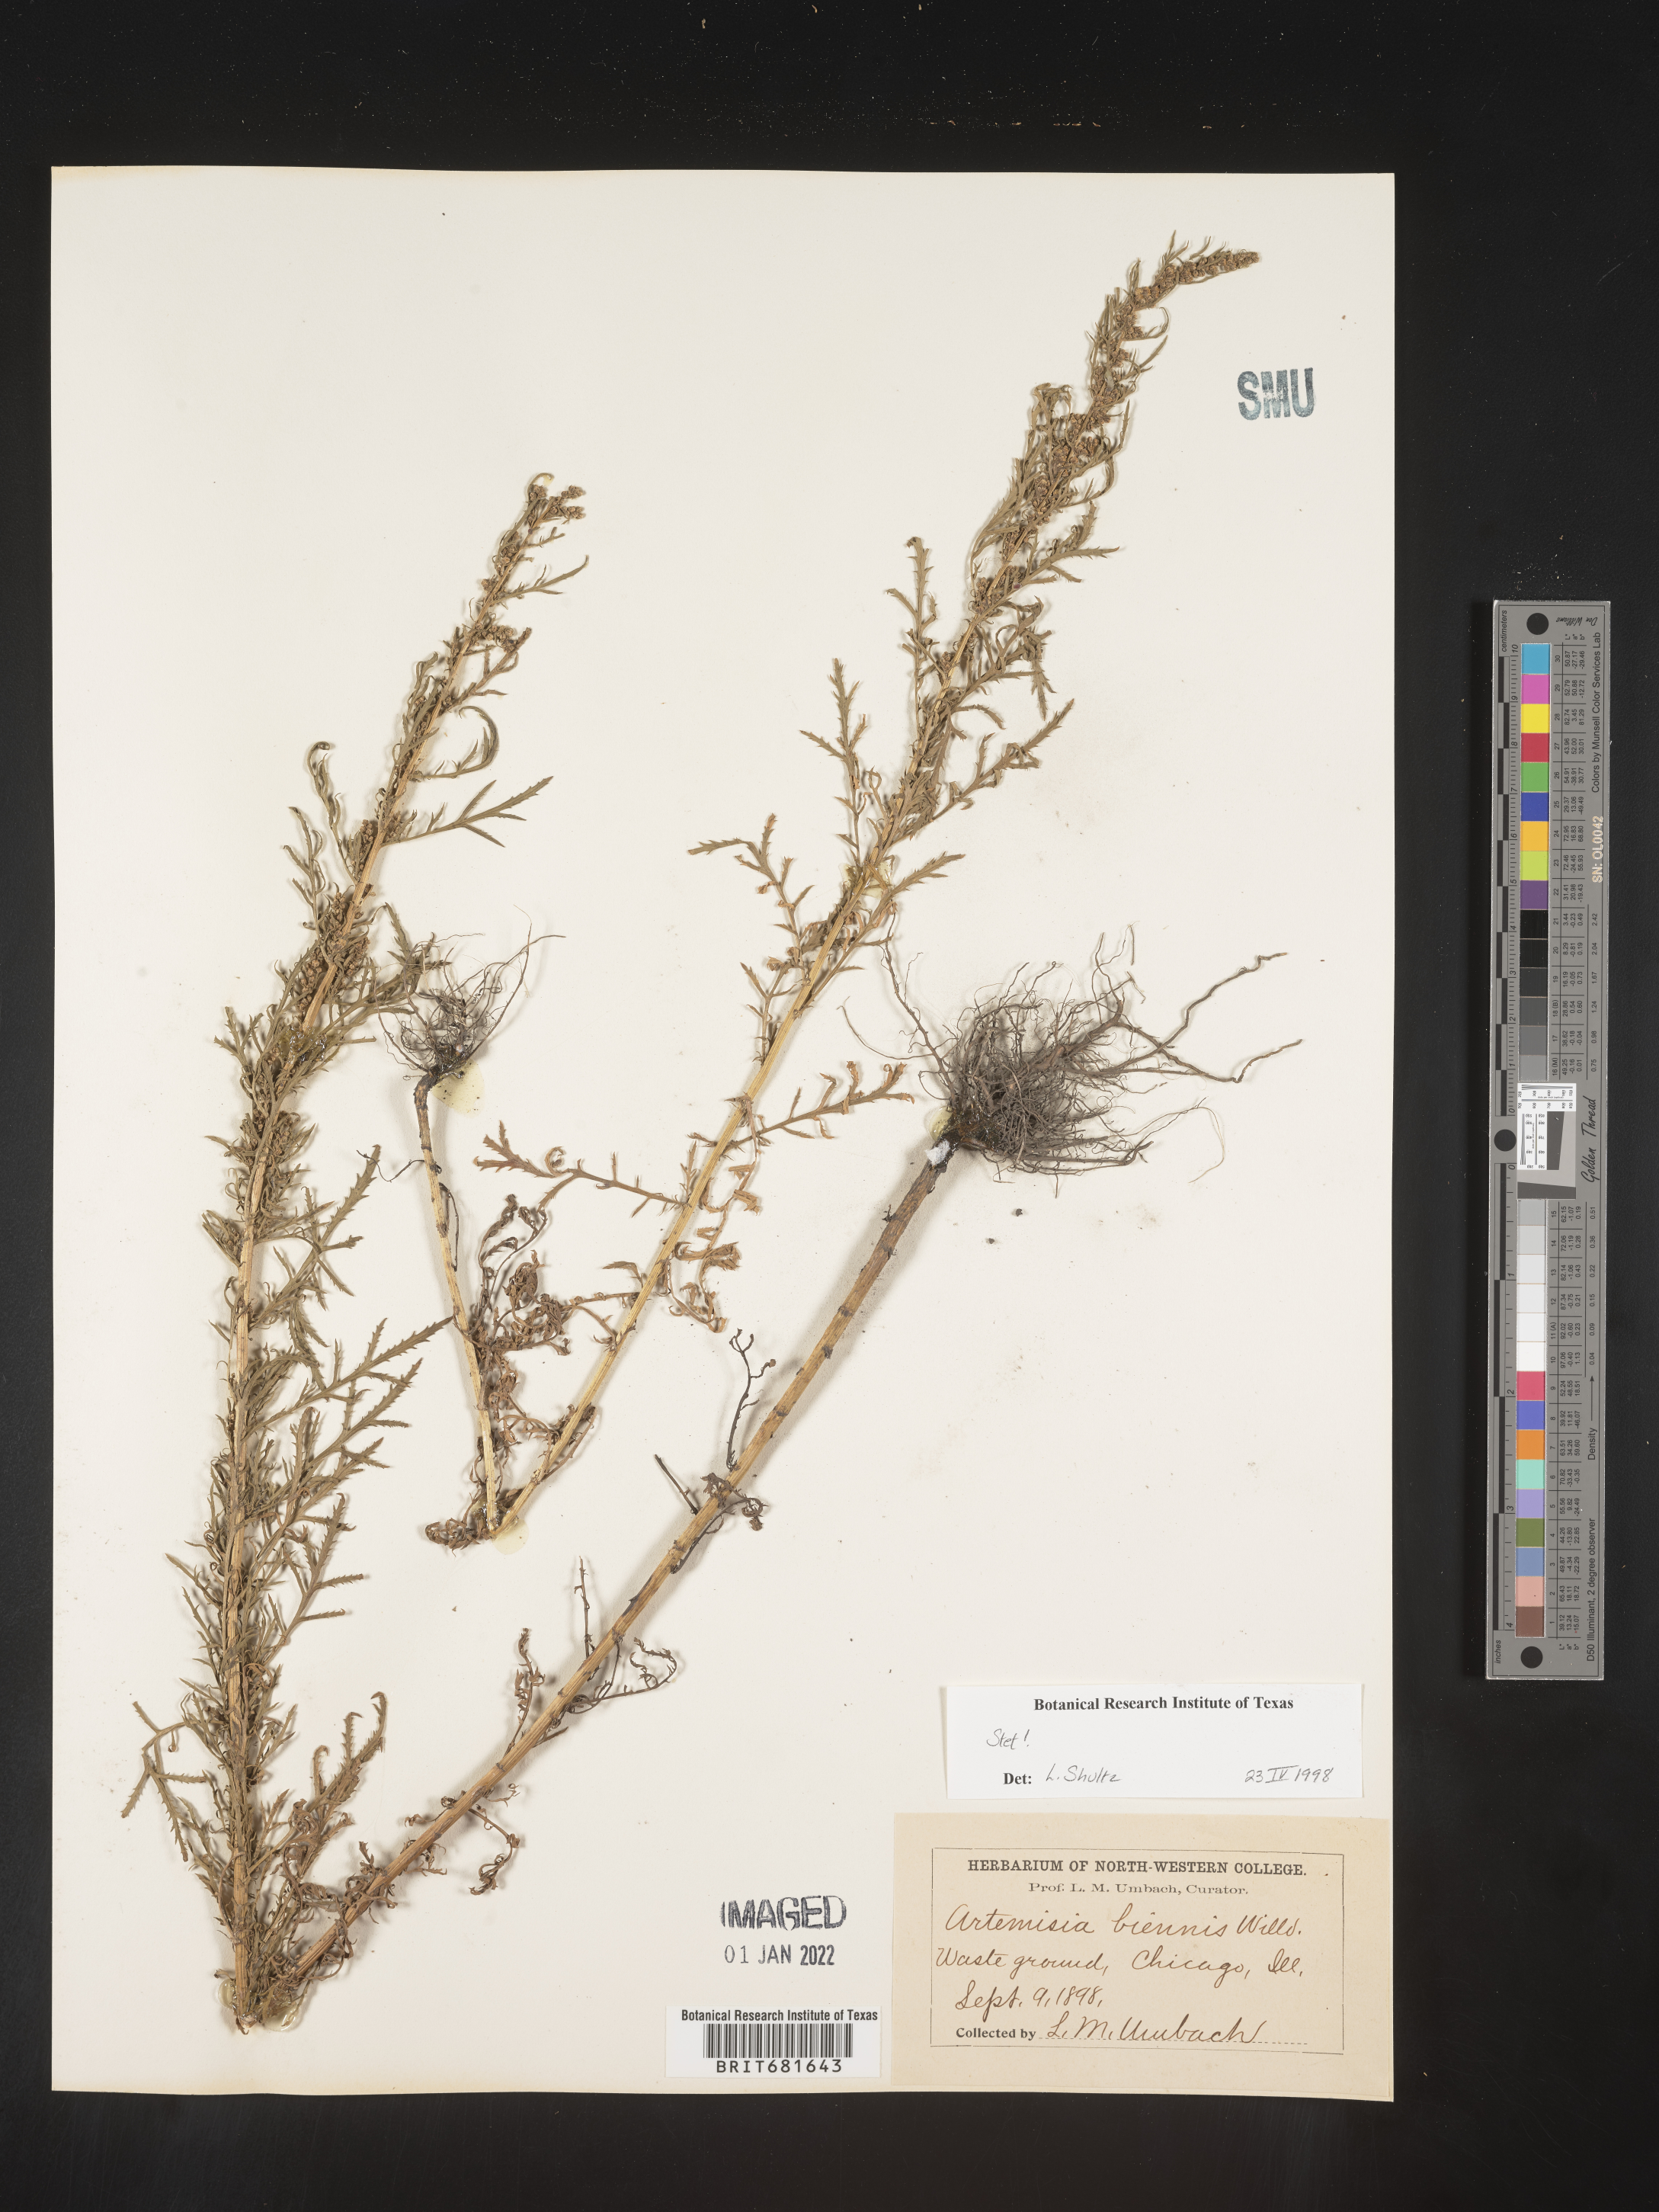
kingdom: Plantae
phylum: Tracheophyta
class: Magnoliopsida
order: Asterales
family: Asteraceae
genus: Artemisia
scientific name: Artemisia biennis
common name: Biennial wormwood
